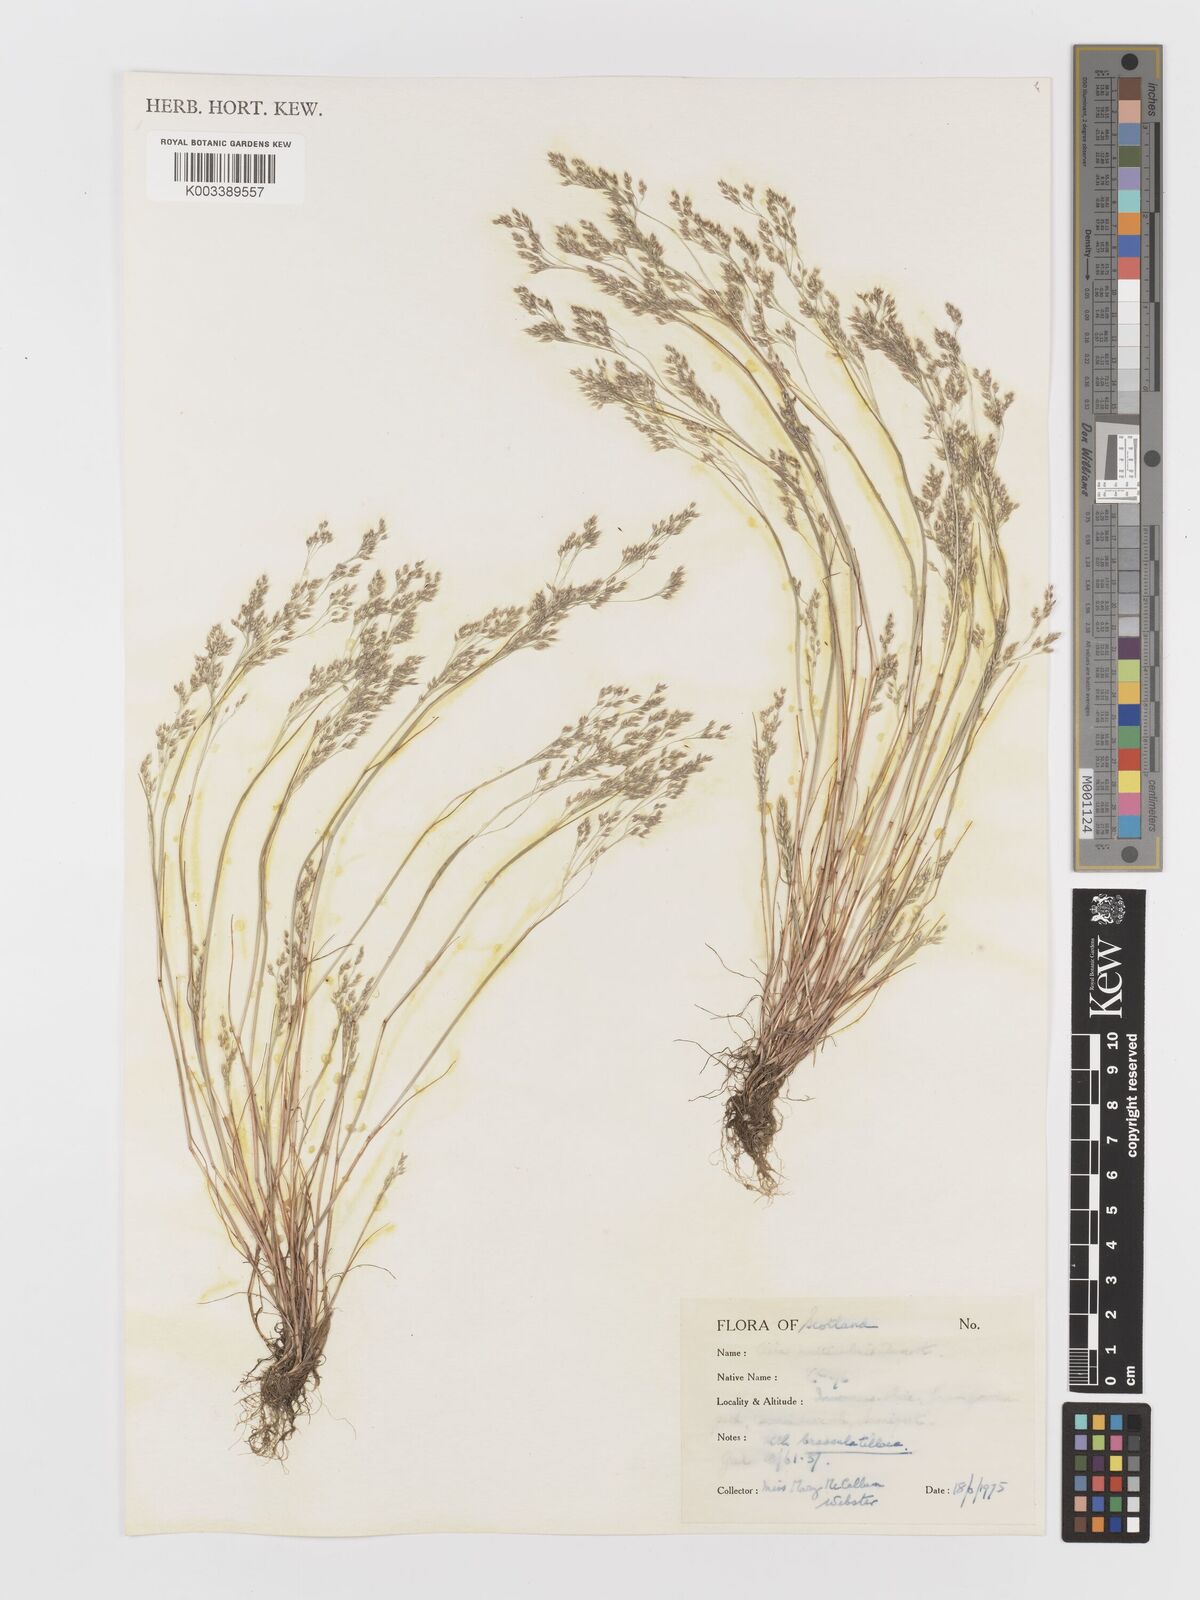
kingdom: Plantae
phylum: Tracheophyta
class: Liliopsida
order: Poales
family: Poaceae
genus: Aira
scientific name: Aira caryophyllea
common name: Silver hairgrass
